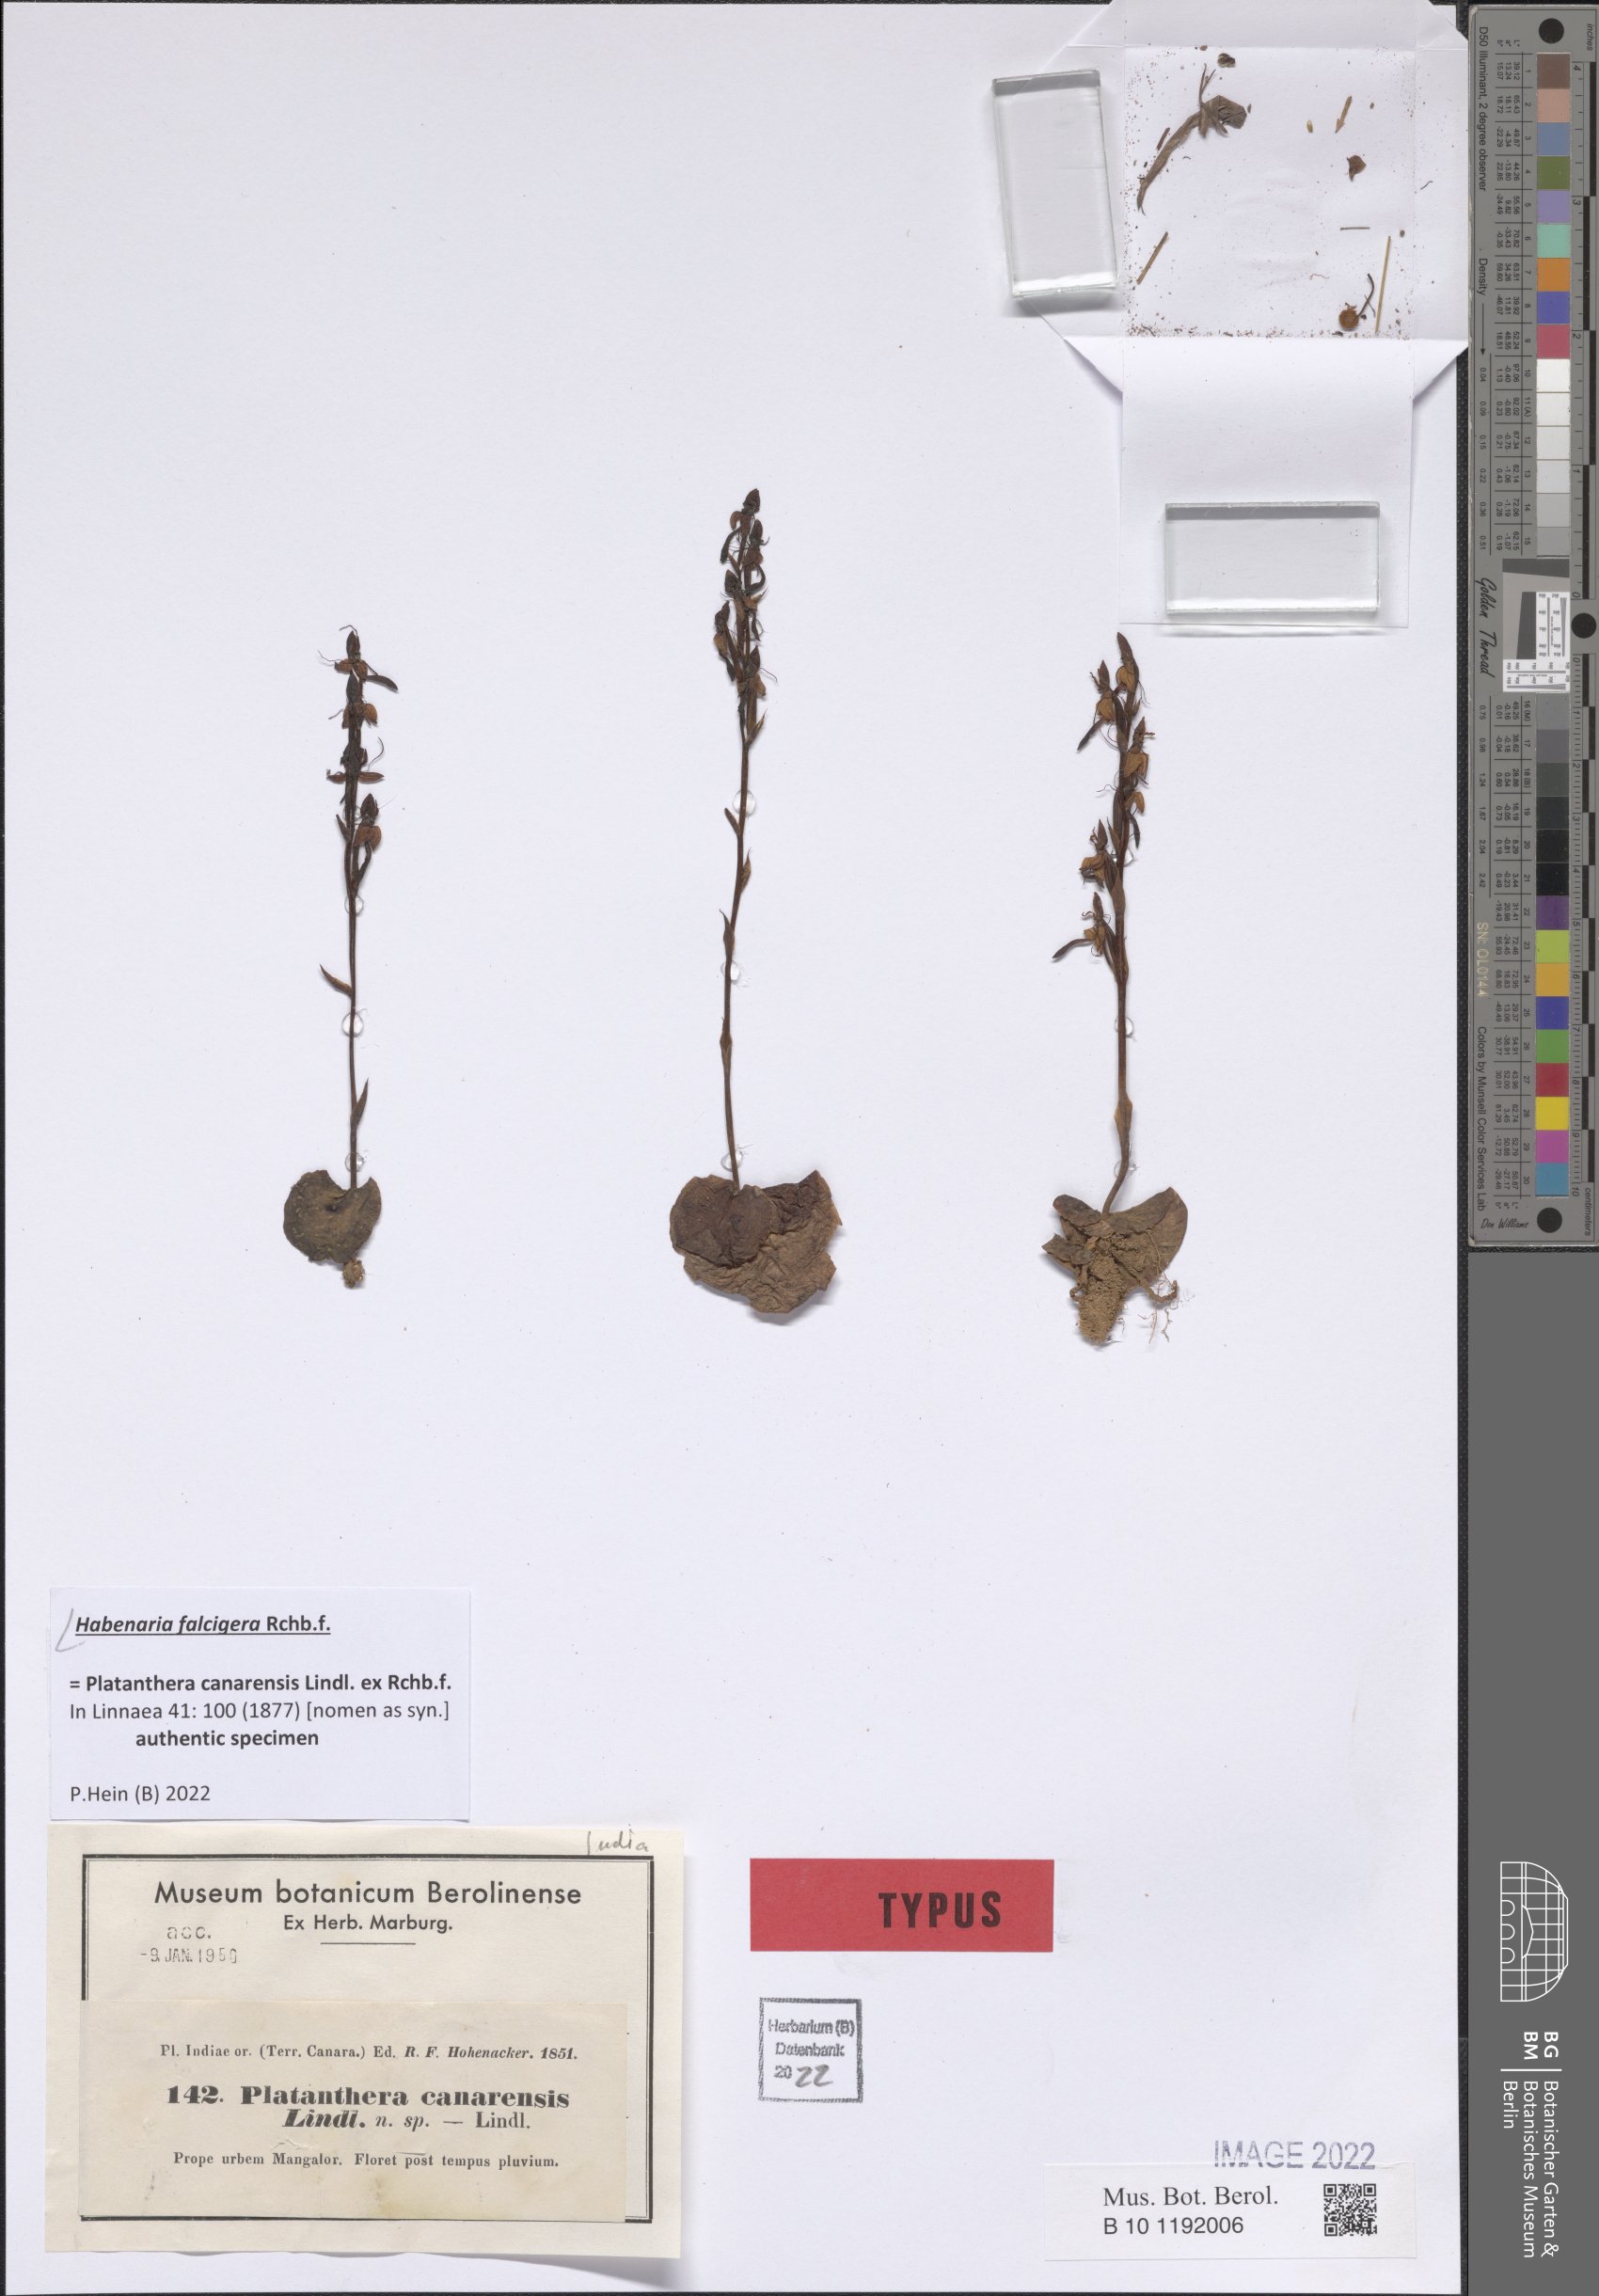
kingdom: Plantae
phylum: Tracheophyta
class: Liliopsida
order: Asparagales
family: Orchidaceae
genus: Habenaria
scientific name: Habenaria falcigera
